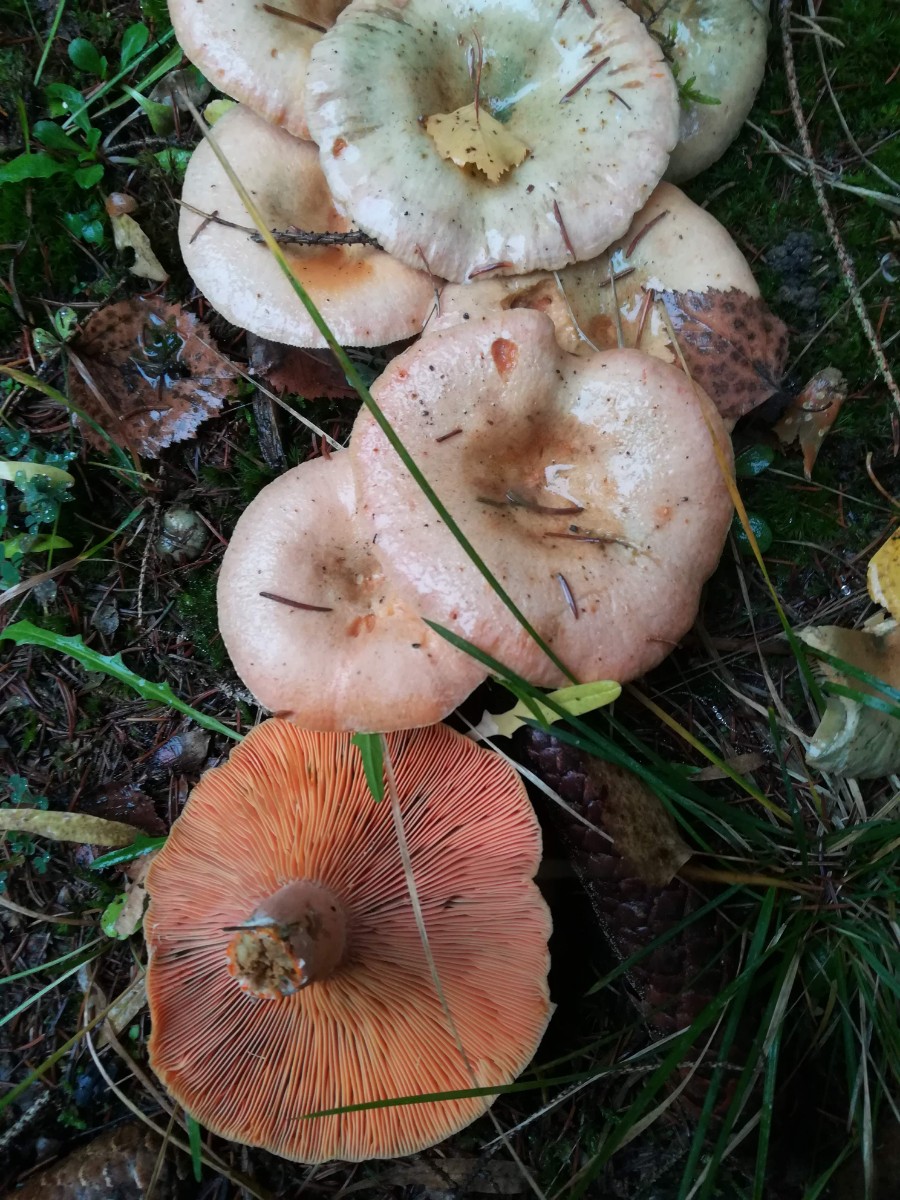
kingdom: Fungi
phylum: Basidiomycota
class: Agaricomycetes
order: Russulales
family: Russulaceae
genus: Lactarius
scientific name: Lactarius deterrimus
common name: gran-mælkehat
